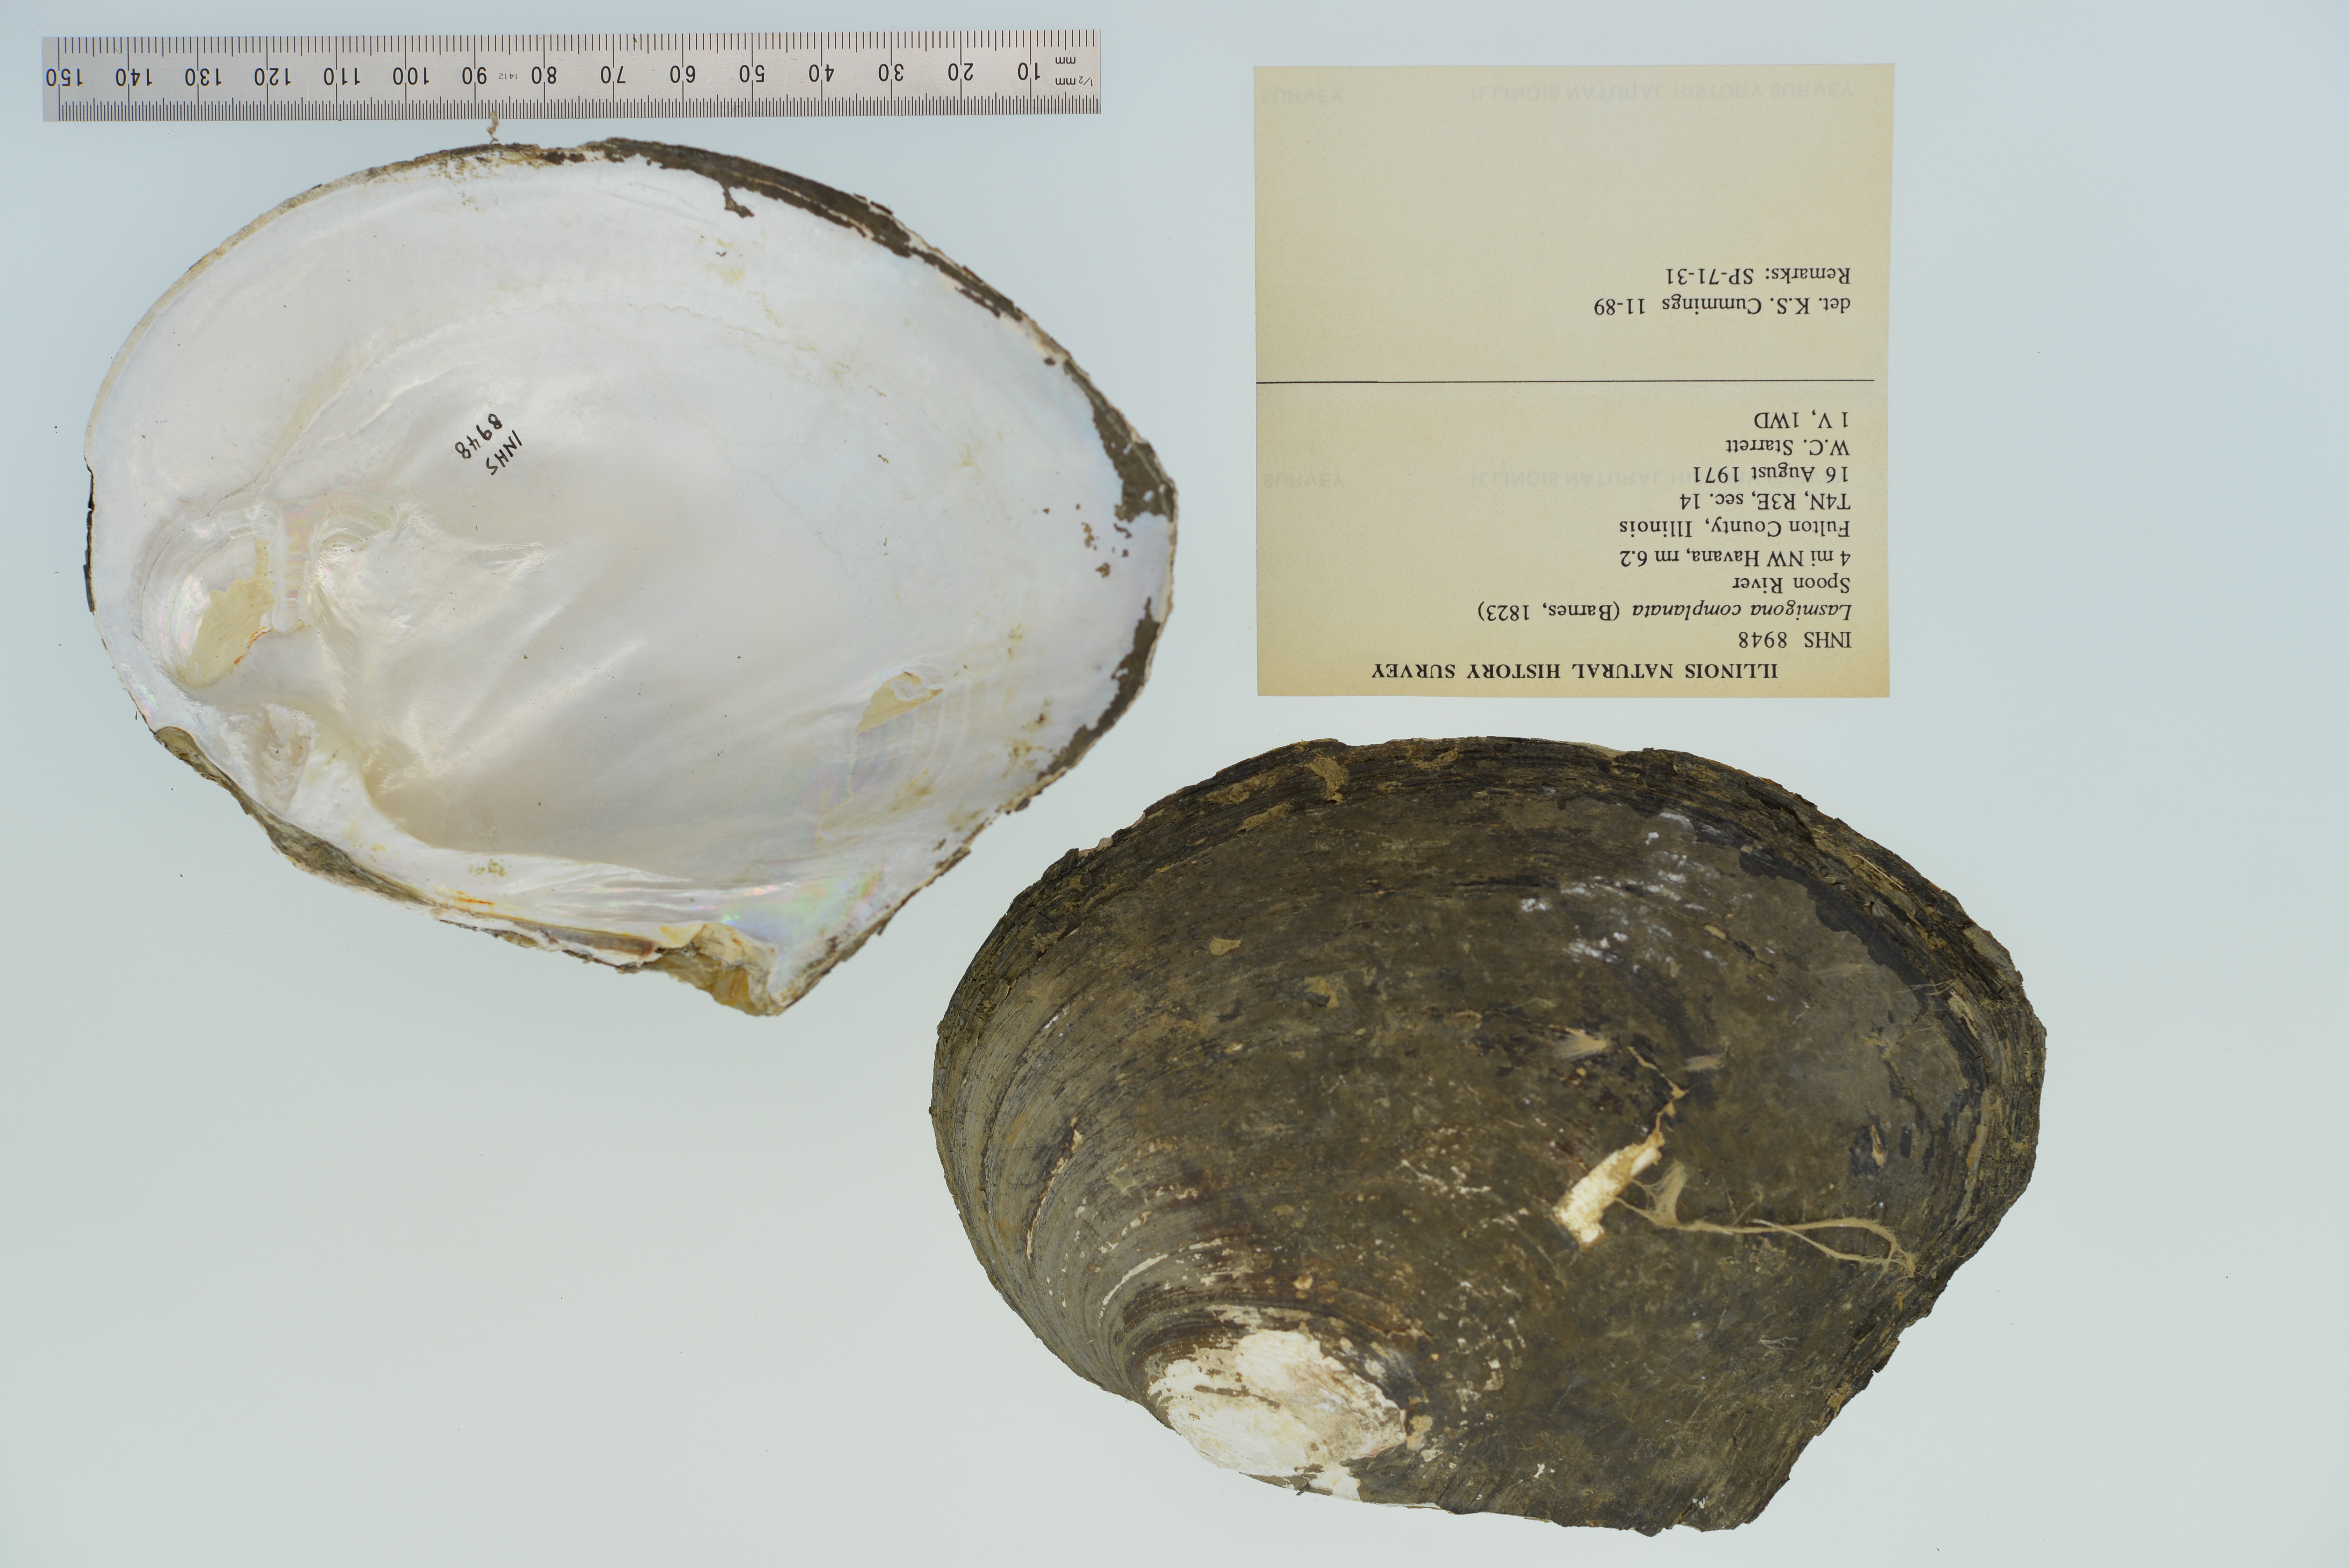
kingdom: Animalia
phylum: Mollusca
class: Bivalvia
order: Unionida
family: Unionidae
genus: Lasmigona
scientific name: Lasmigona complanata
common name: White heelsplitter
